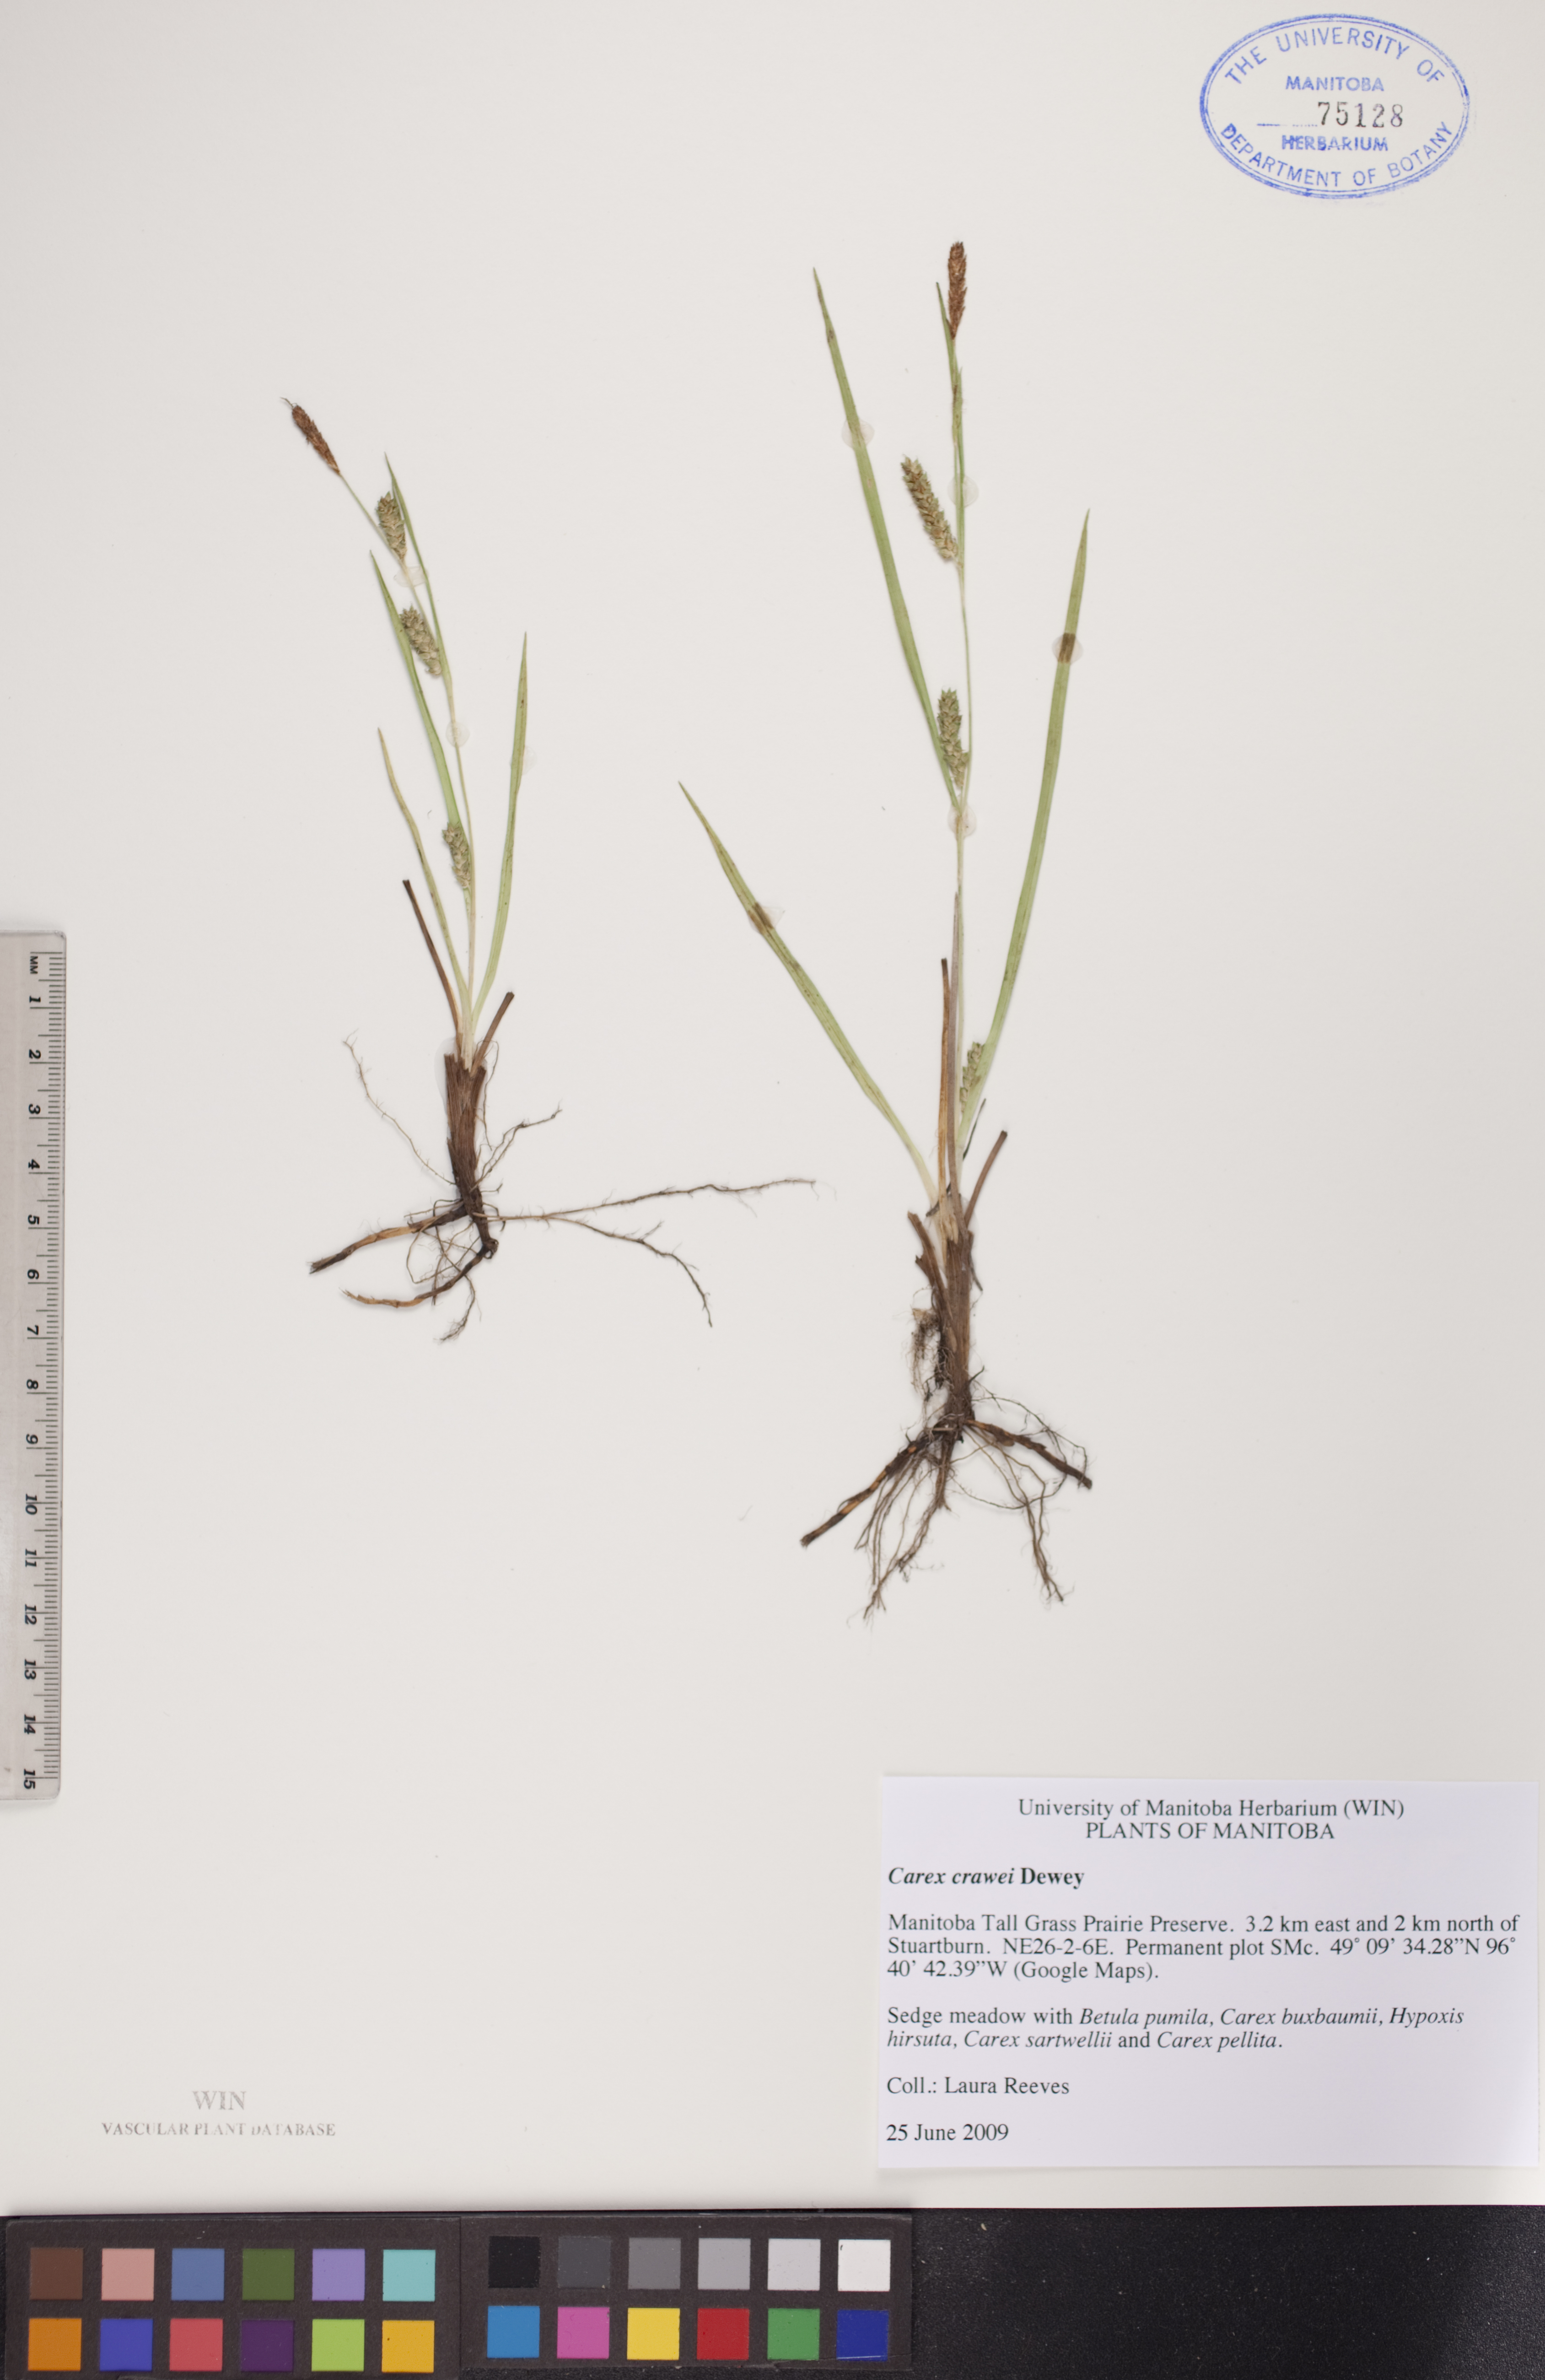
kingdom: Plantae
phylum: Tracheophyta
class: Liliopsida
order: Poales
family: Cyperaceae
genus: Carex
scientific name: Carex crawei
